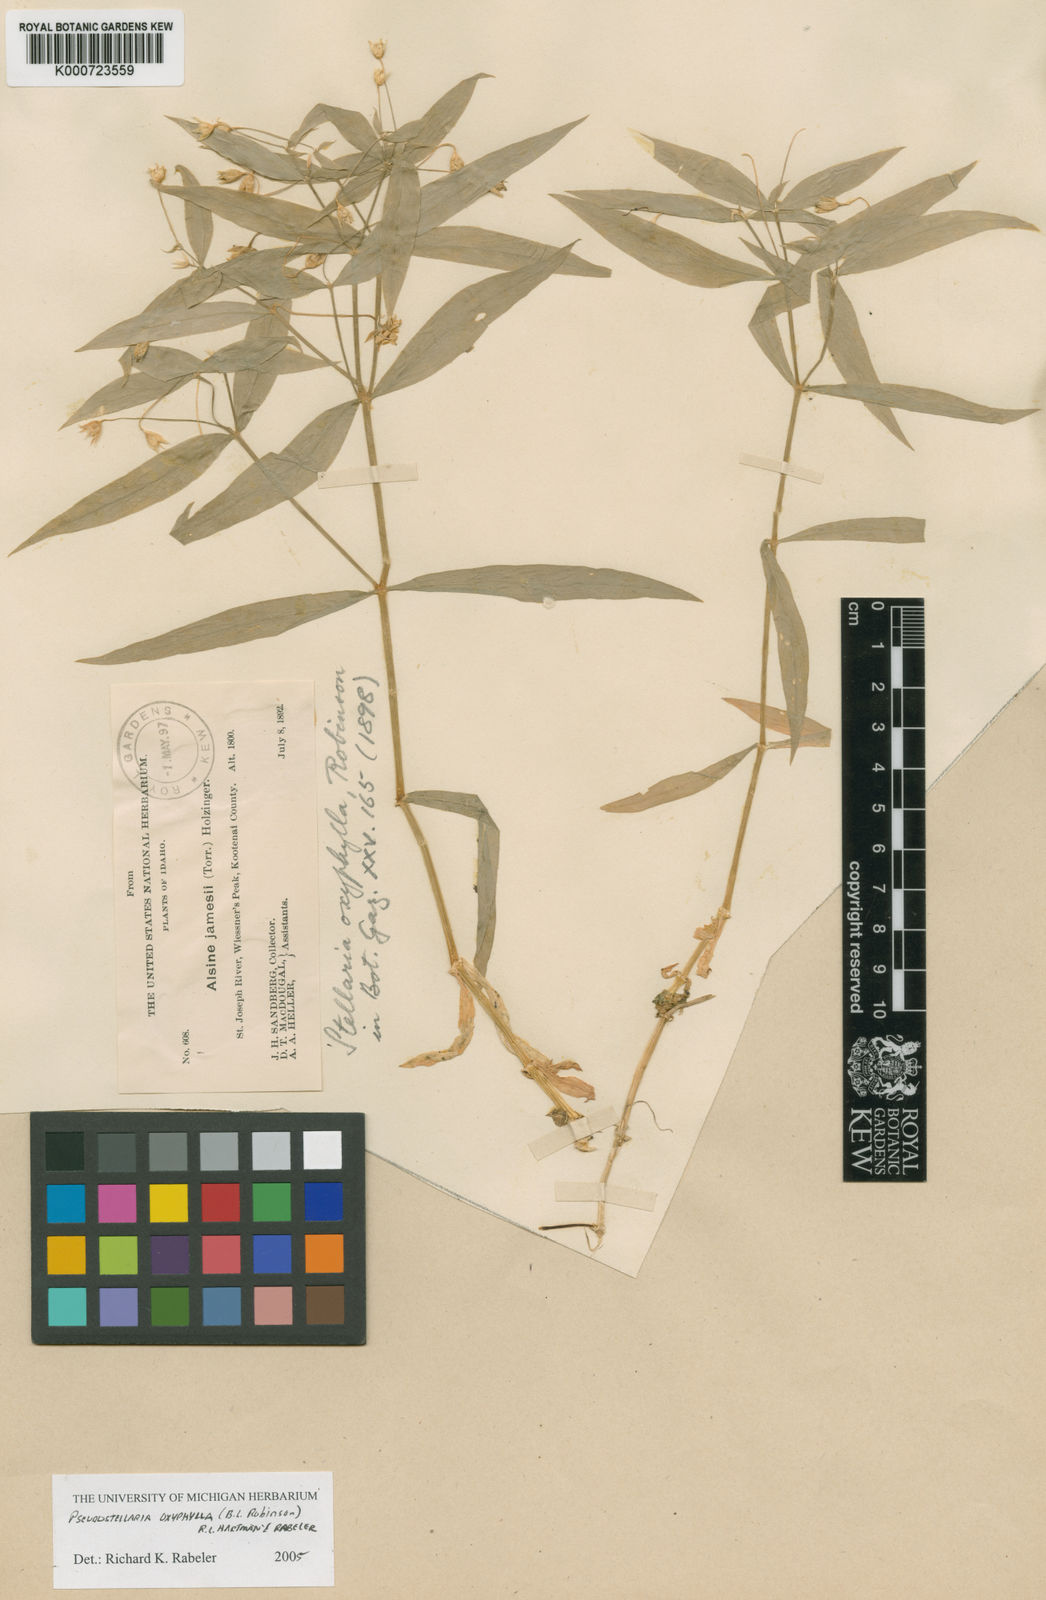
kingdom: Plantae
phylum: Tracheophyta
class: Magnoliopsida
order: Caryophyllales
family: Caryophyllaceae
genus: Hartmaniella
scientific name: Hartmaniella oxyphylla
